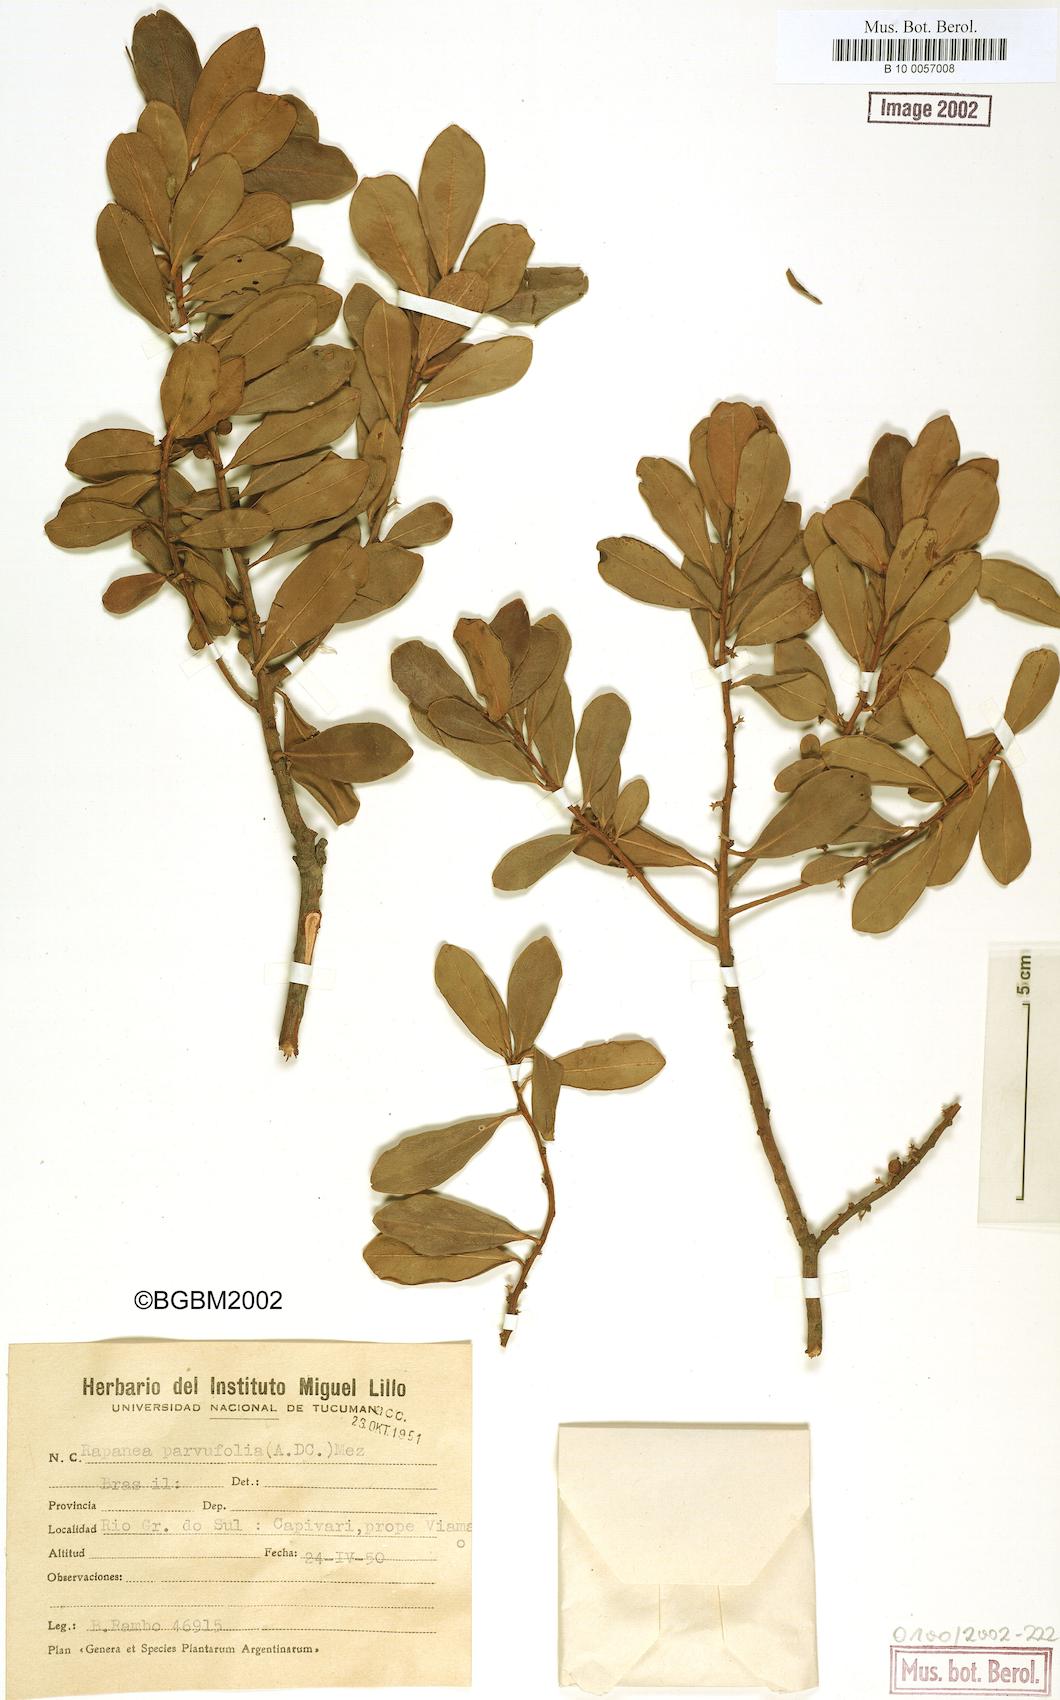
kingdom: Plantae
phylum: Tracheophyta
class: Magnoliopsida
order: Ericales
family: Primulaceae
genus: Myrsine
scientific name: Myrsine parvifolia
